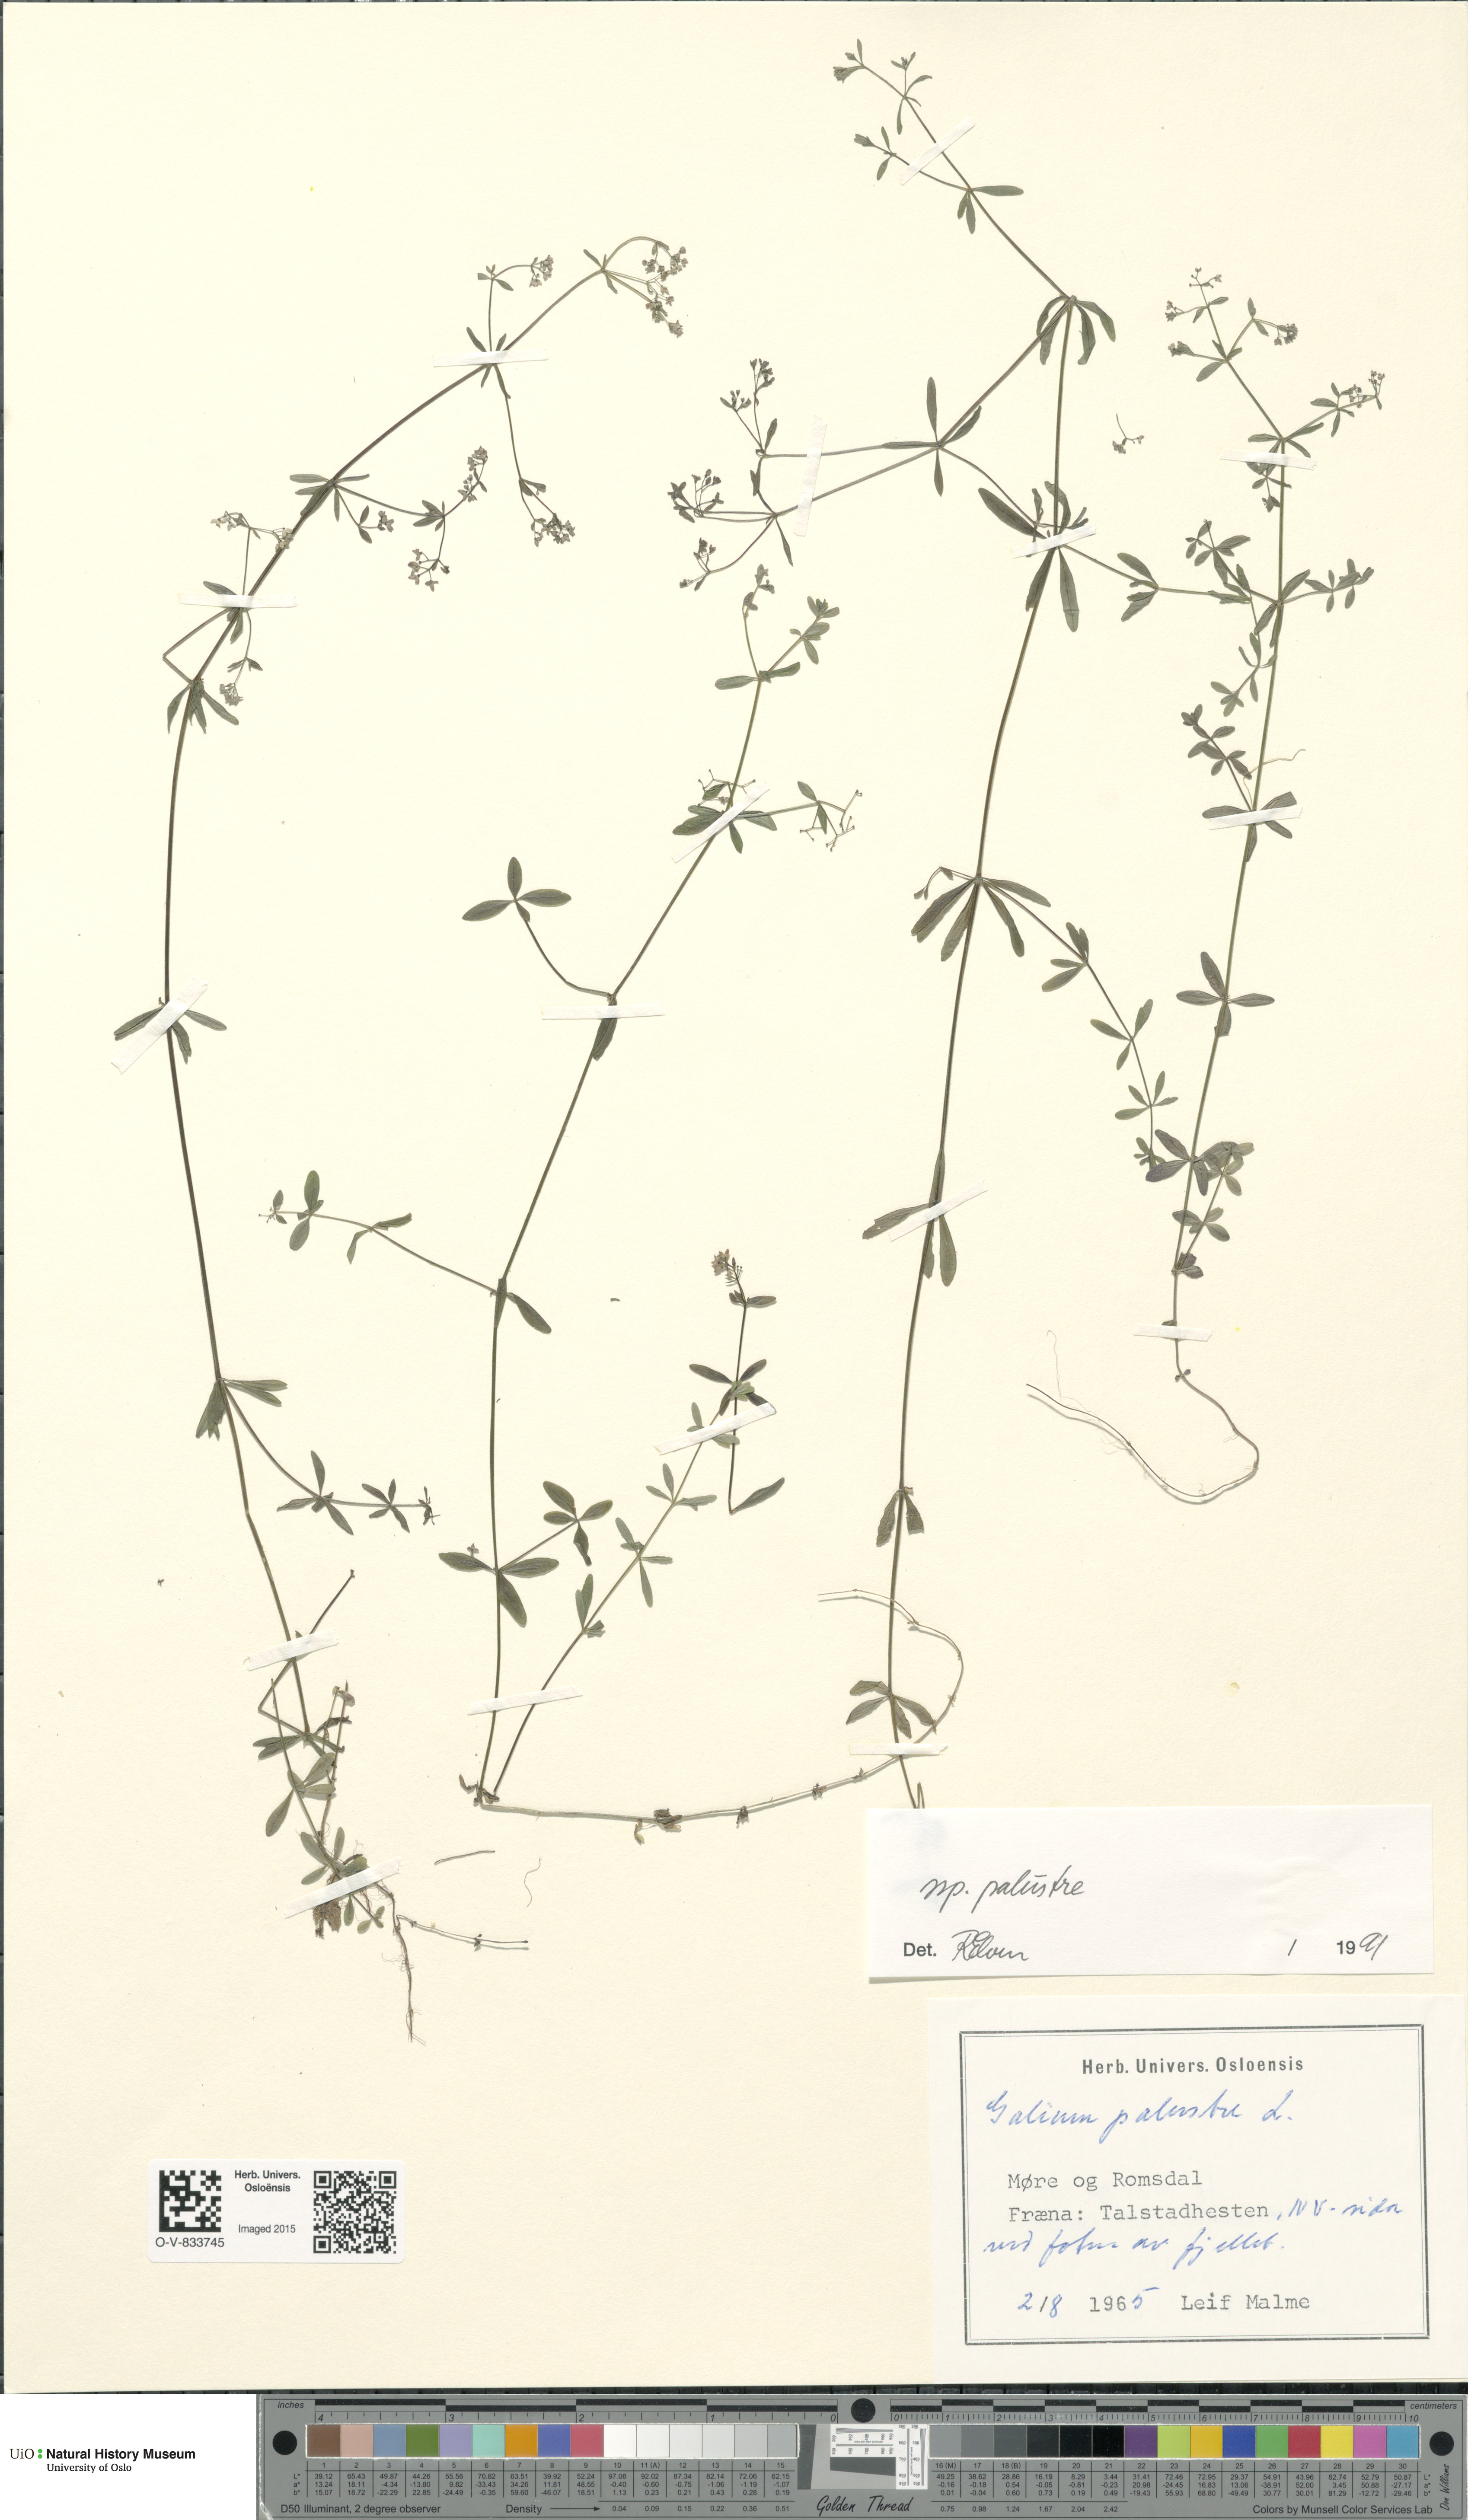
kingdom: Plantae
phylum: Tracheophyta
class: Magnoliopsida
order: Gentianales
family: Rubiaceae
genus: Galium
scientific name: Galium palustre
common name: Common marsh-bedstraw
